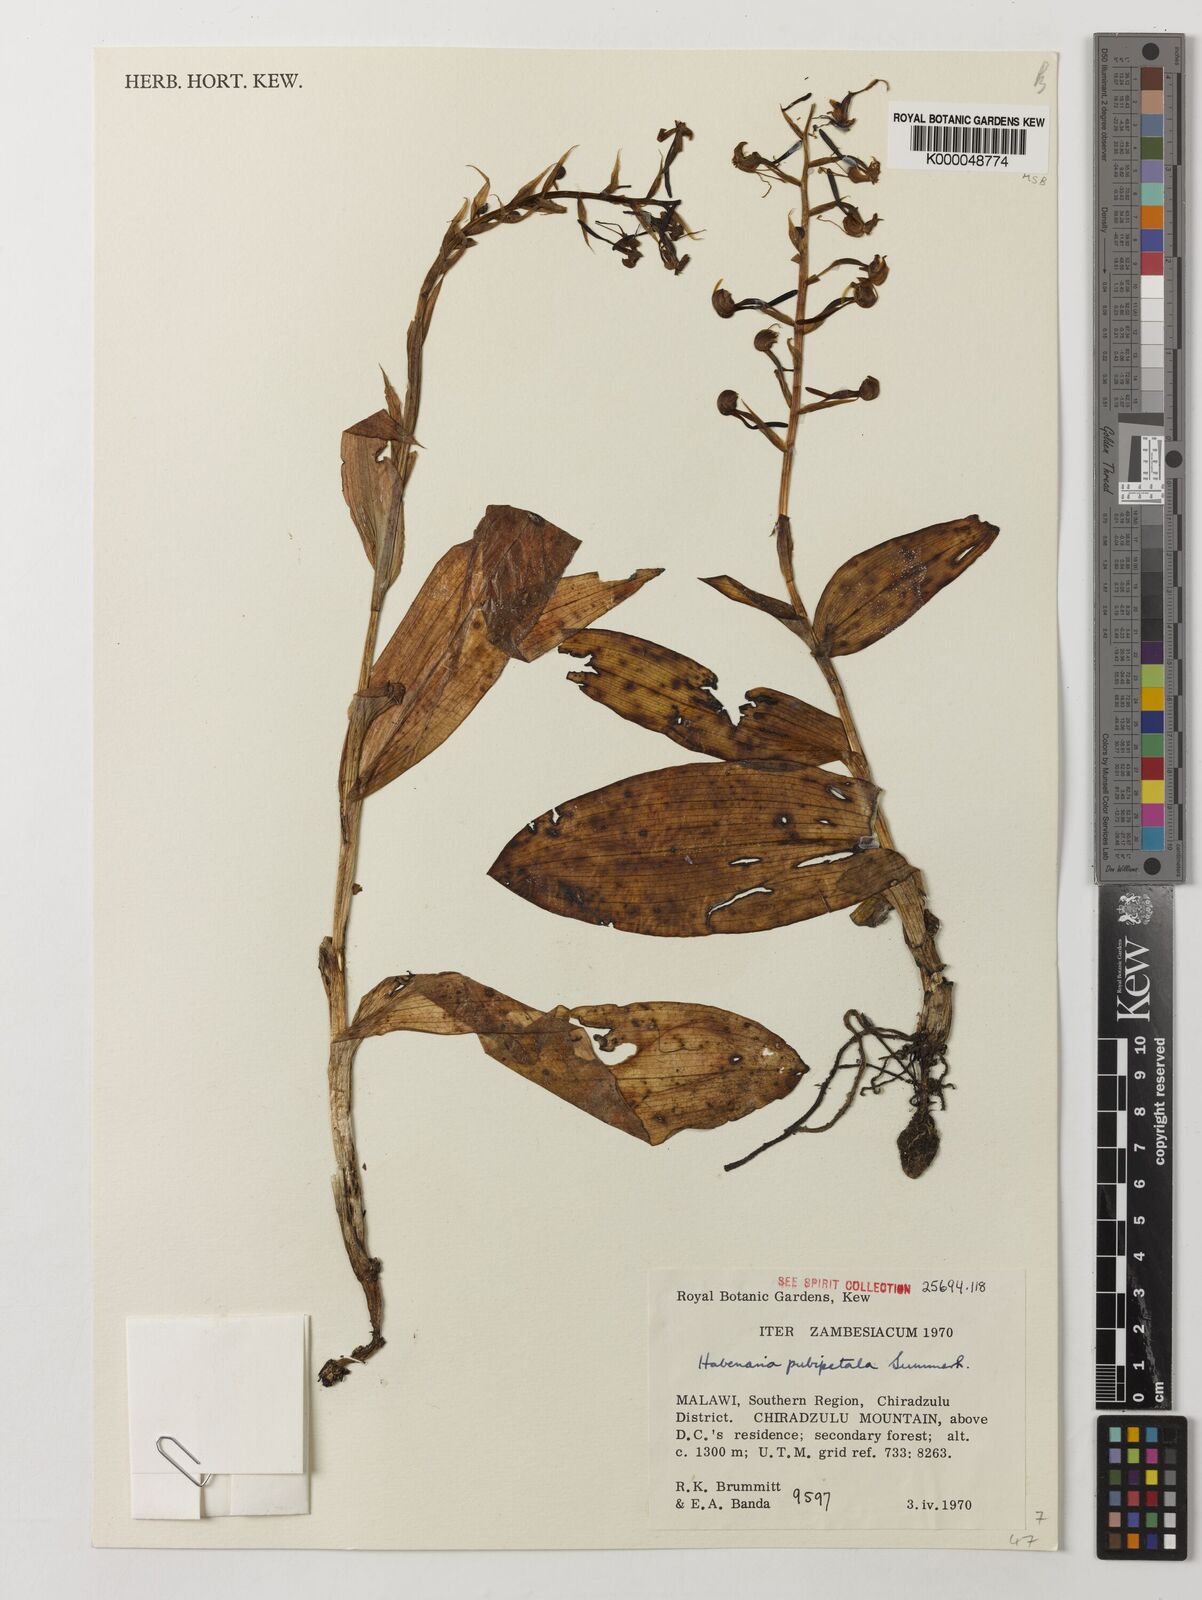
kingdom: Plantae
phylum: Tracheophyta
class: Liliopsida
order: Asparagales
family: Orchidaceae
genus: Habenaria
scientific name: Habenaria pubipetala
